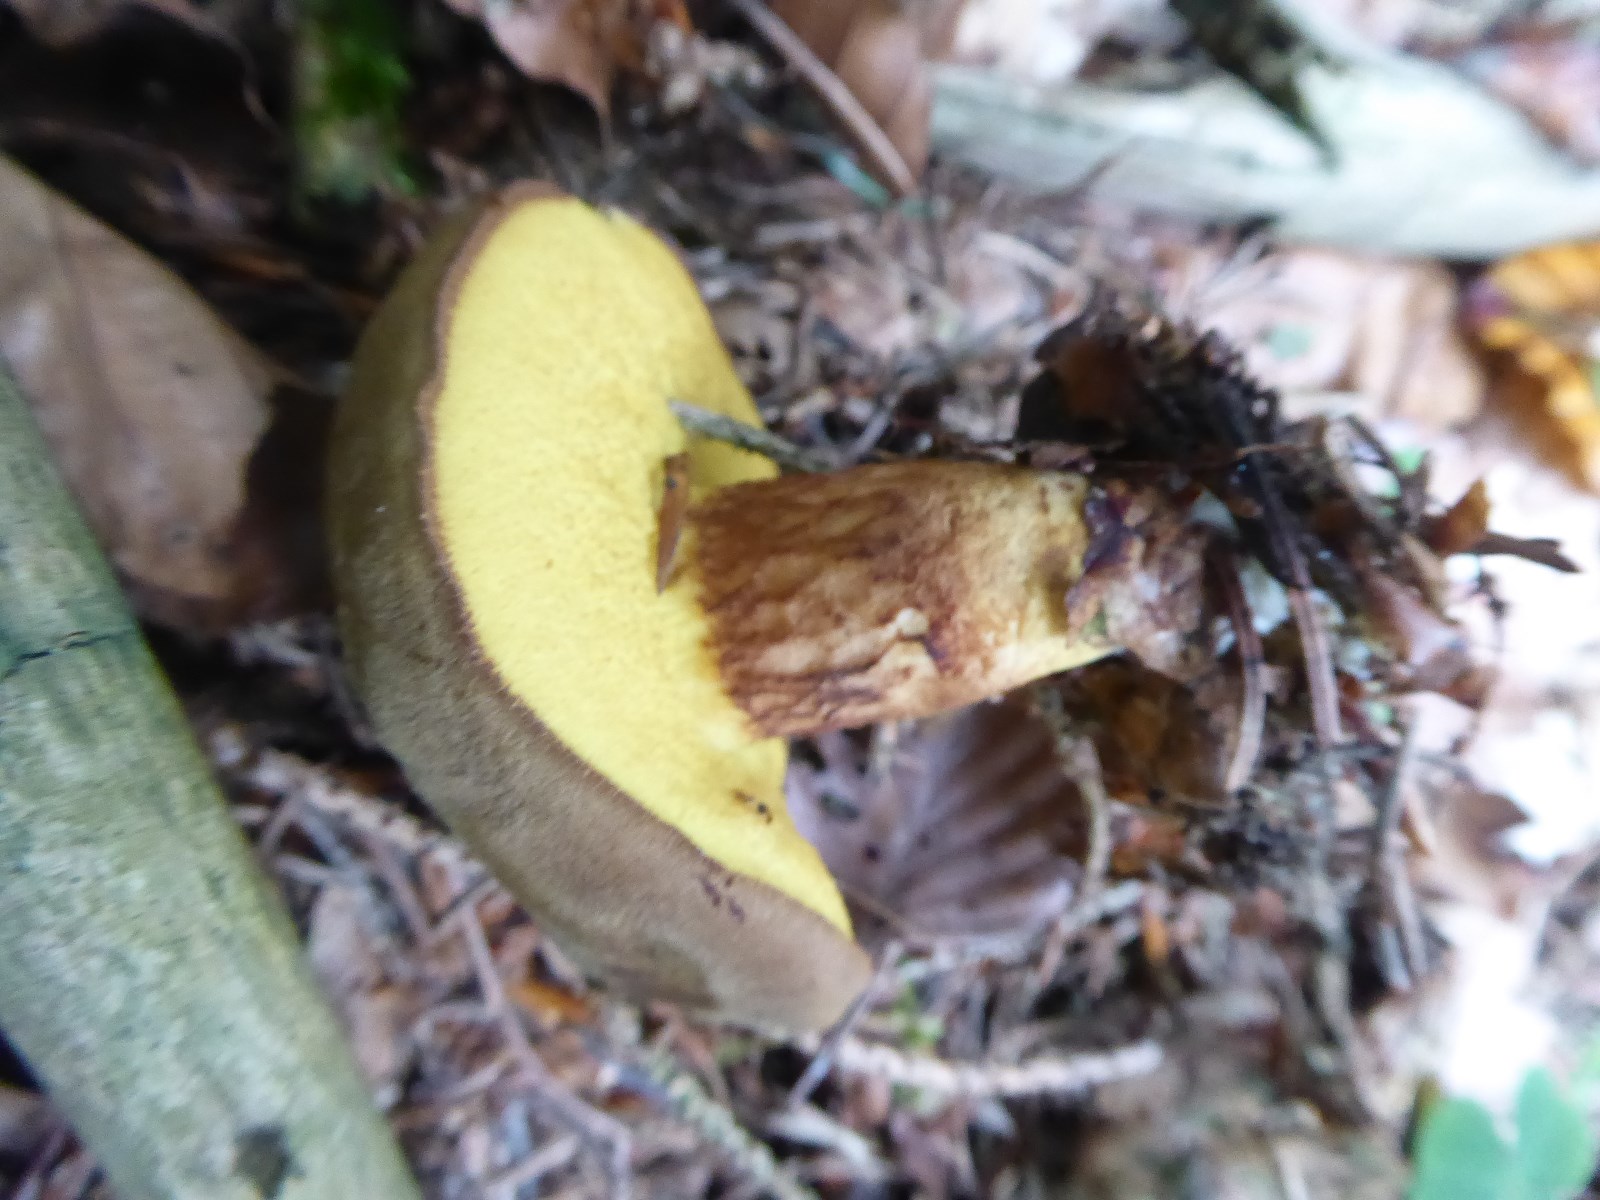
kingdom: Fungi
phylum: Basidiomycota
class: Agaricomycetes
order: Boletales
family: Boletaceae
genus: Xerocomus
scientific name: Xerocomus ferrugineus
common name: vaskeskinds-rørhat
